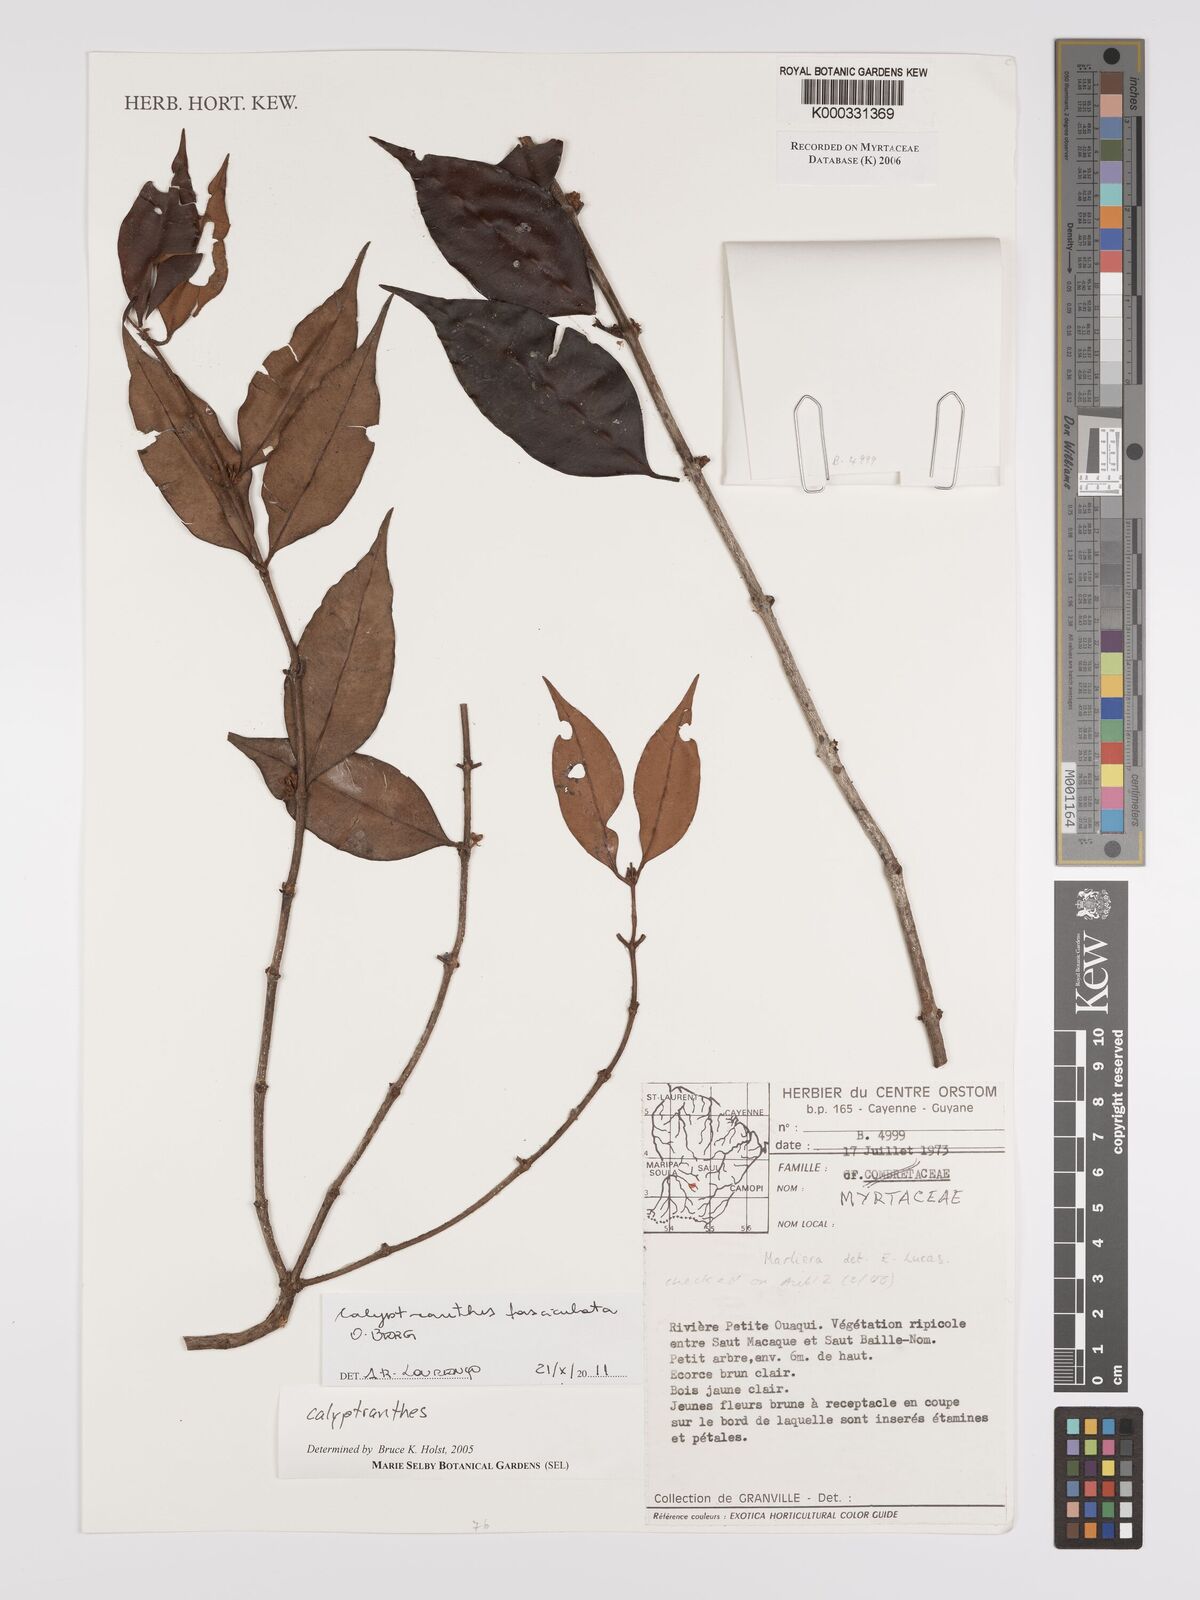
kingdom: Plantae
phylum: Tracheophyta
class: Magnoliopsida
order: Myrtales
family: Myrtaceae
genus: Calyptranthes
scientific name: Calyptranthes
